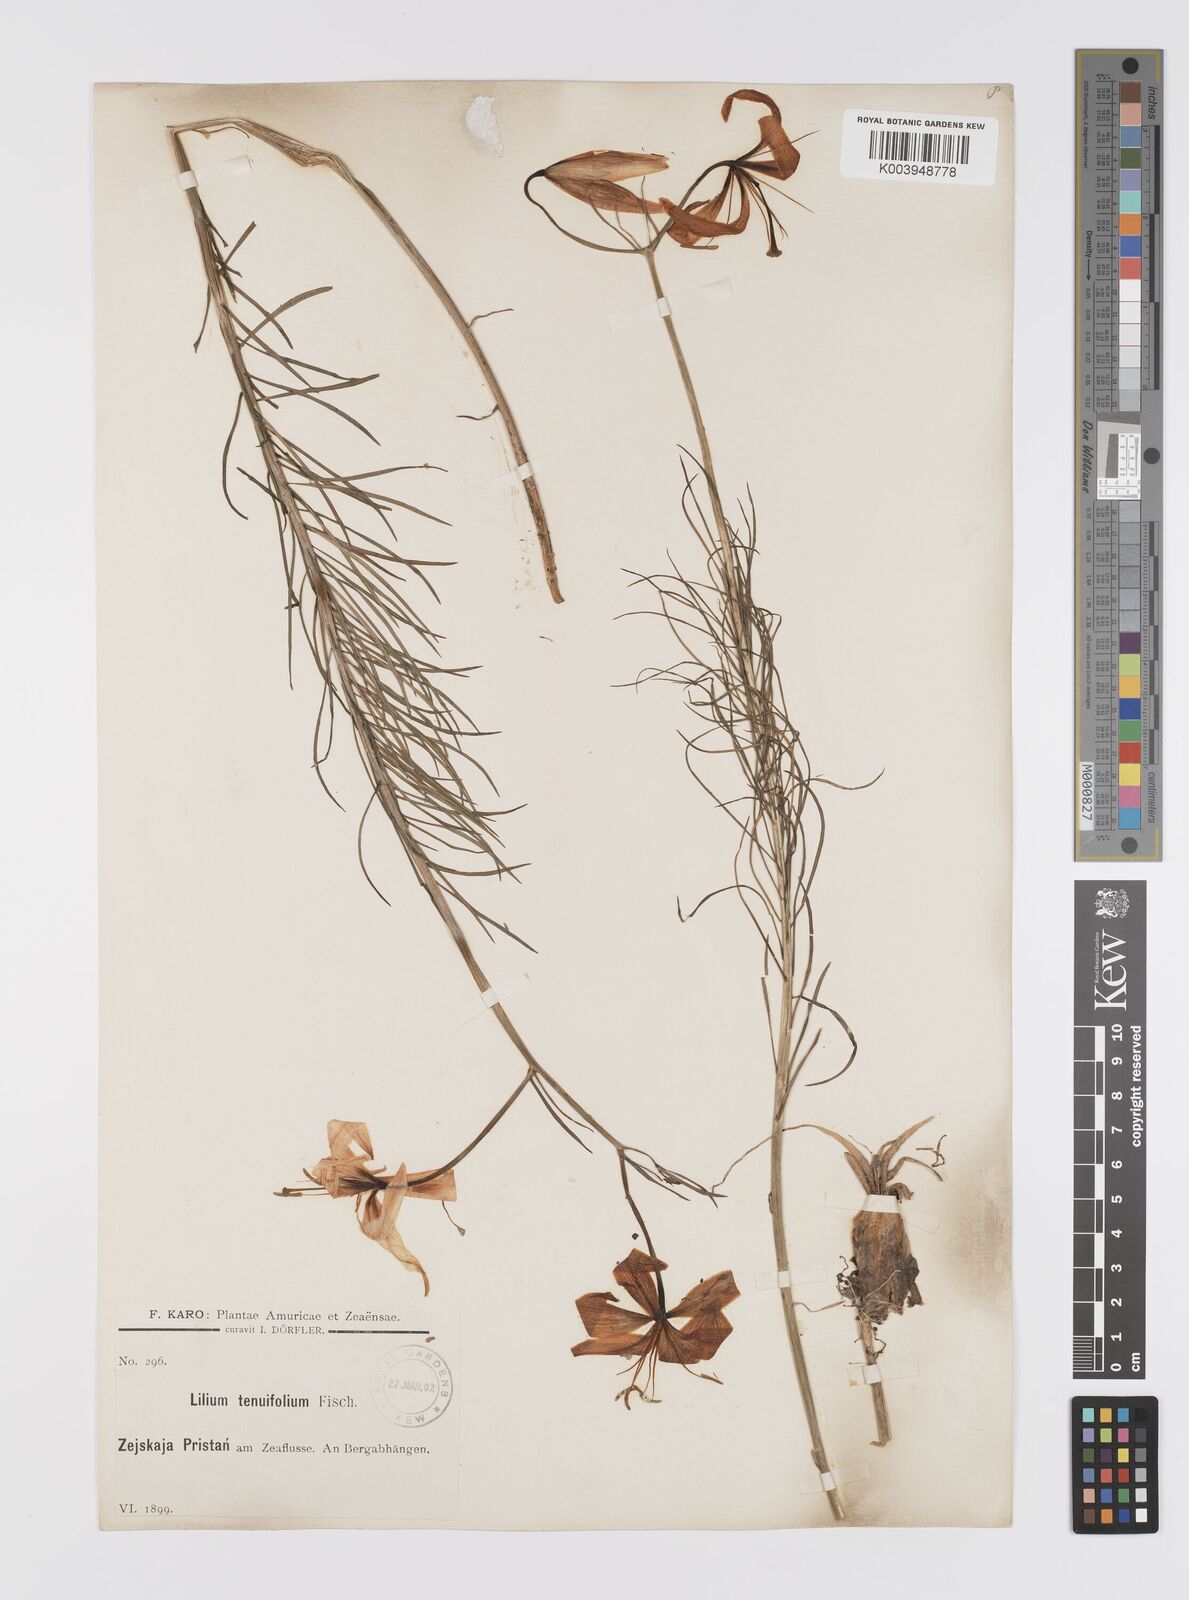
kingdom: Plantae
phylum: Tracheophyta
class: Liliopsida
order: Liliales
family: Liliaceae
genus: Lilium
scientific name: Lilium pumilum
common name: Coral lily
